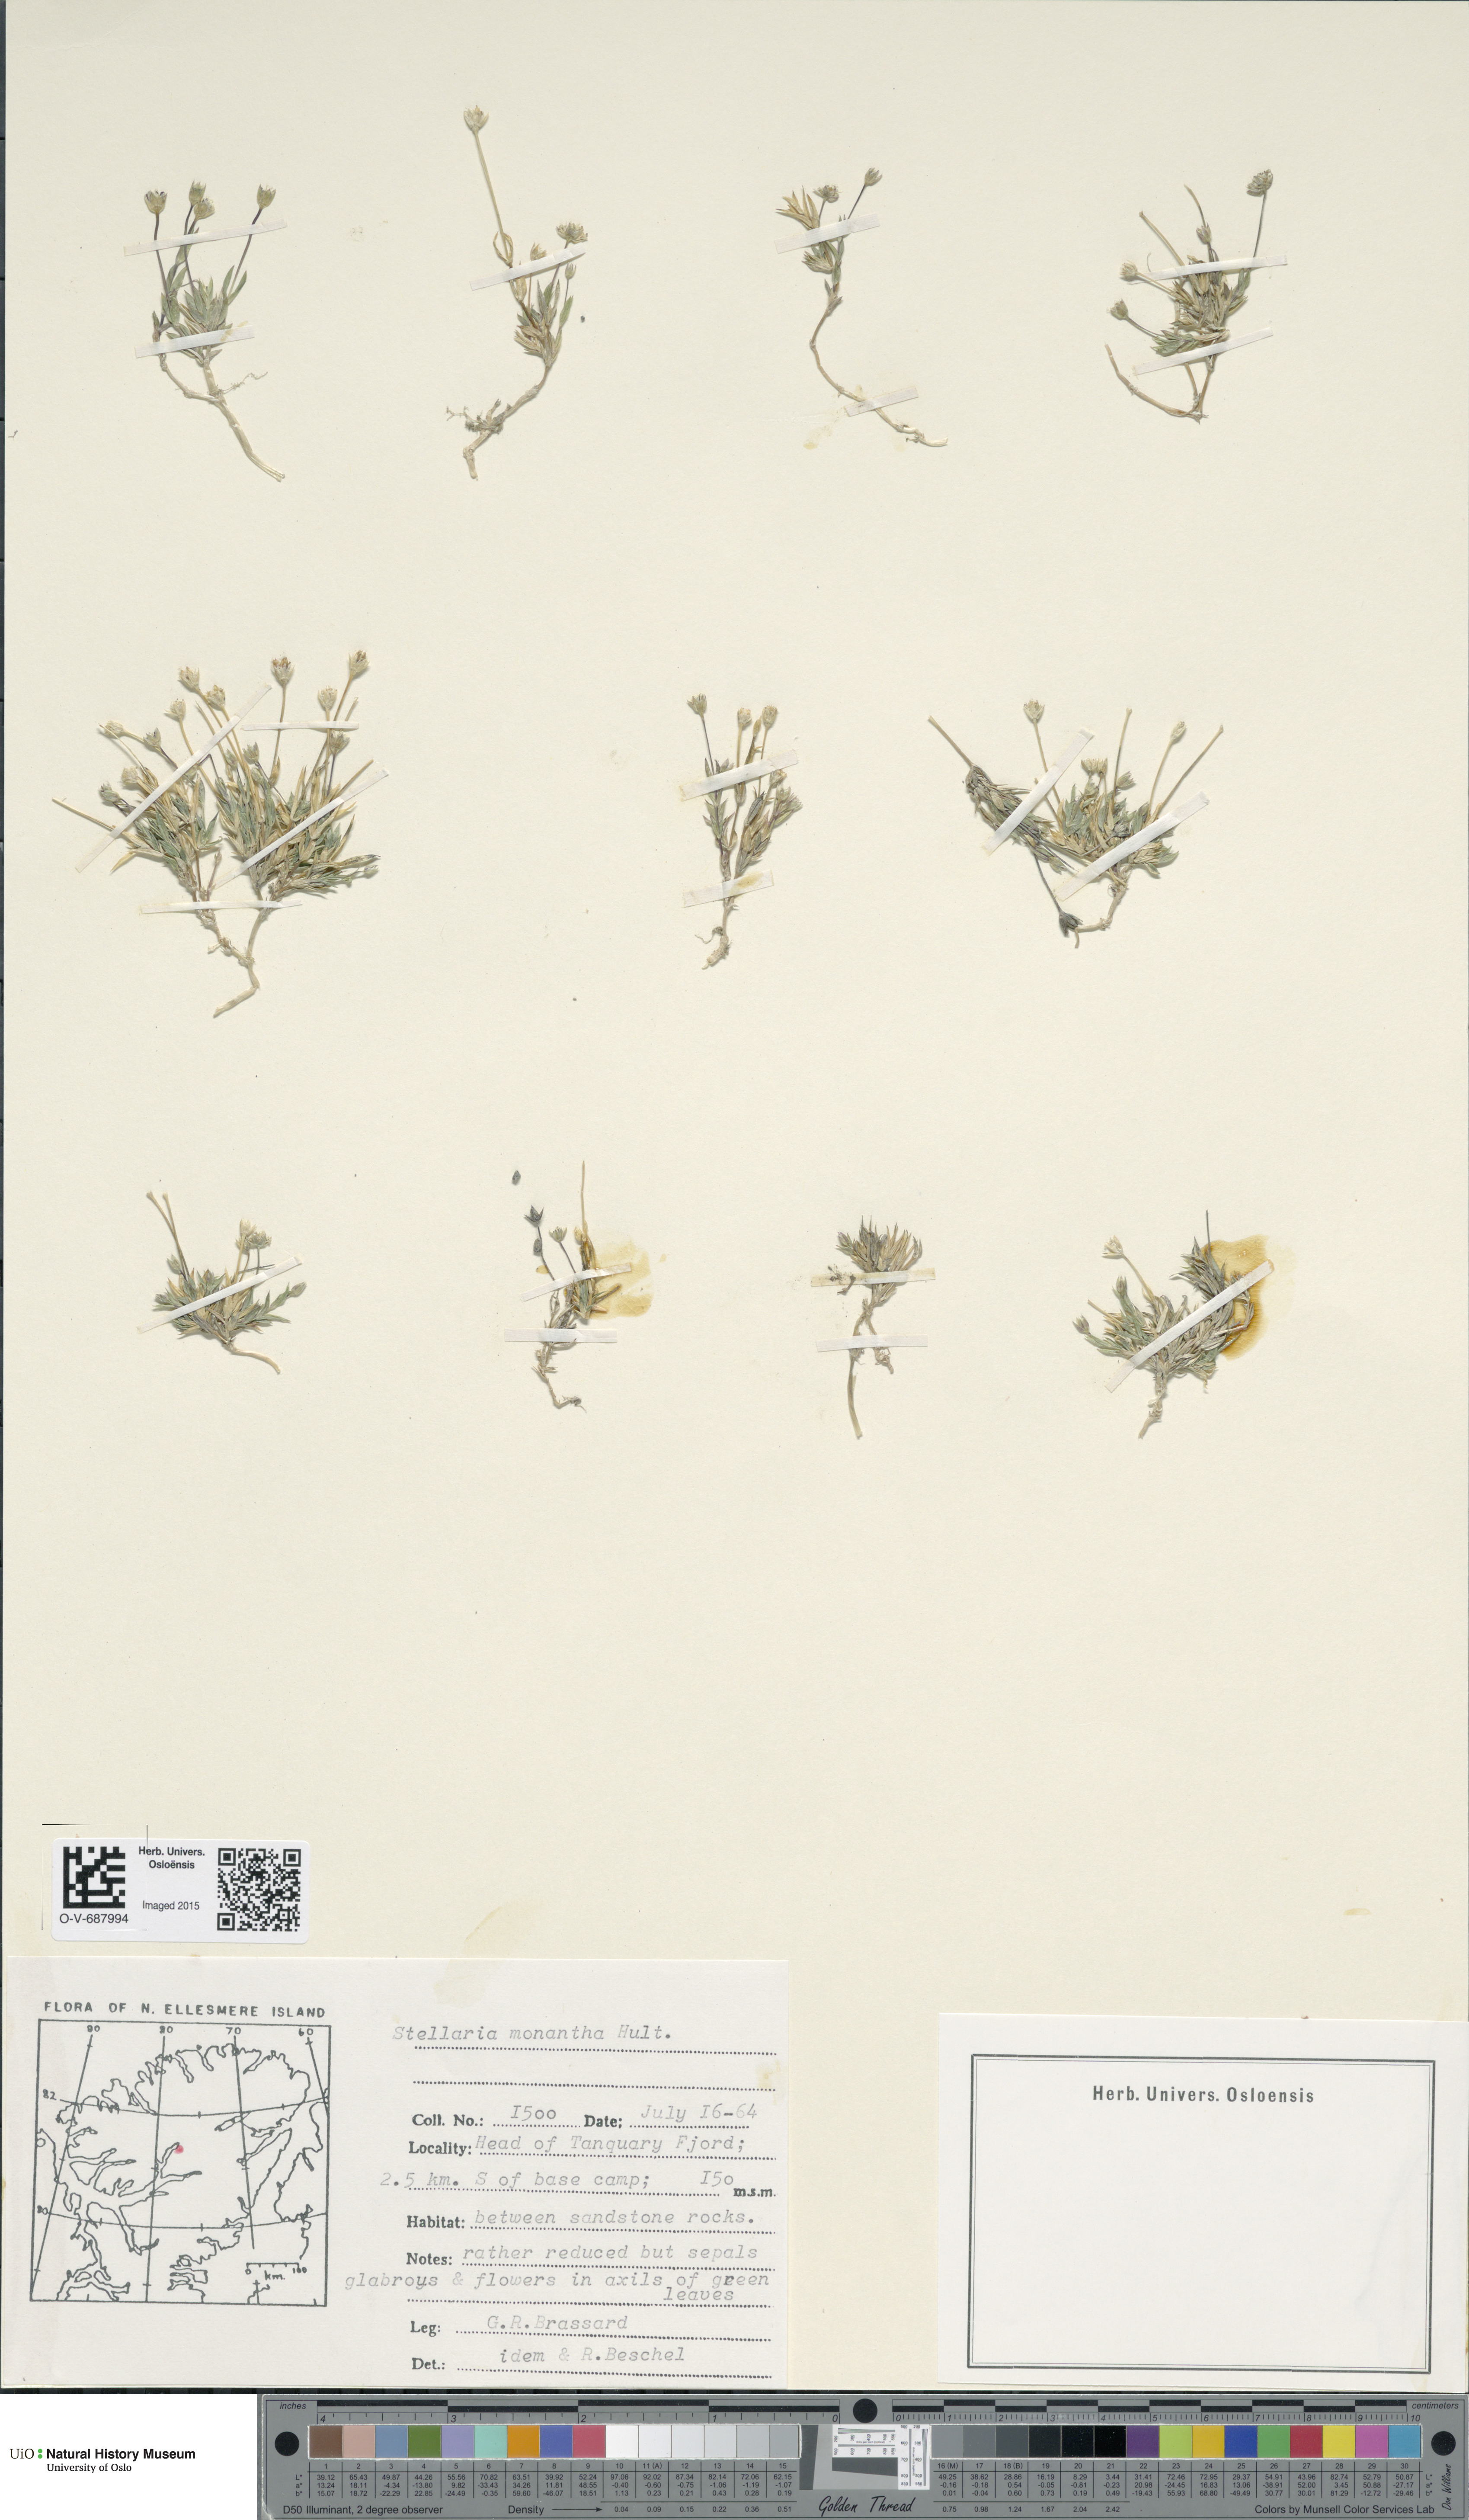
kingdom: Plantae
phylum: Tracheophyta
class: Magnoliopsida
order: Caryophyllales
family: Caryophyllaceae
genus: Stellaria
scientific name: Stellaria longipes
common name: Goldie's starwort
